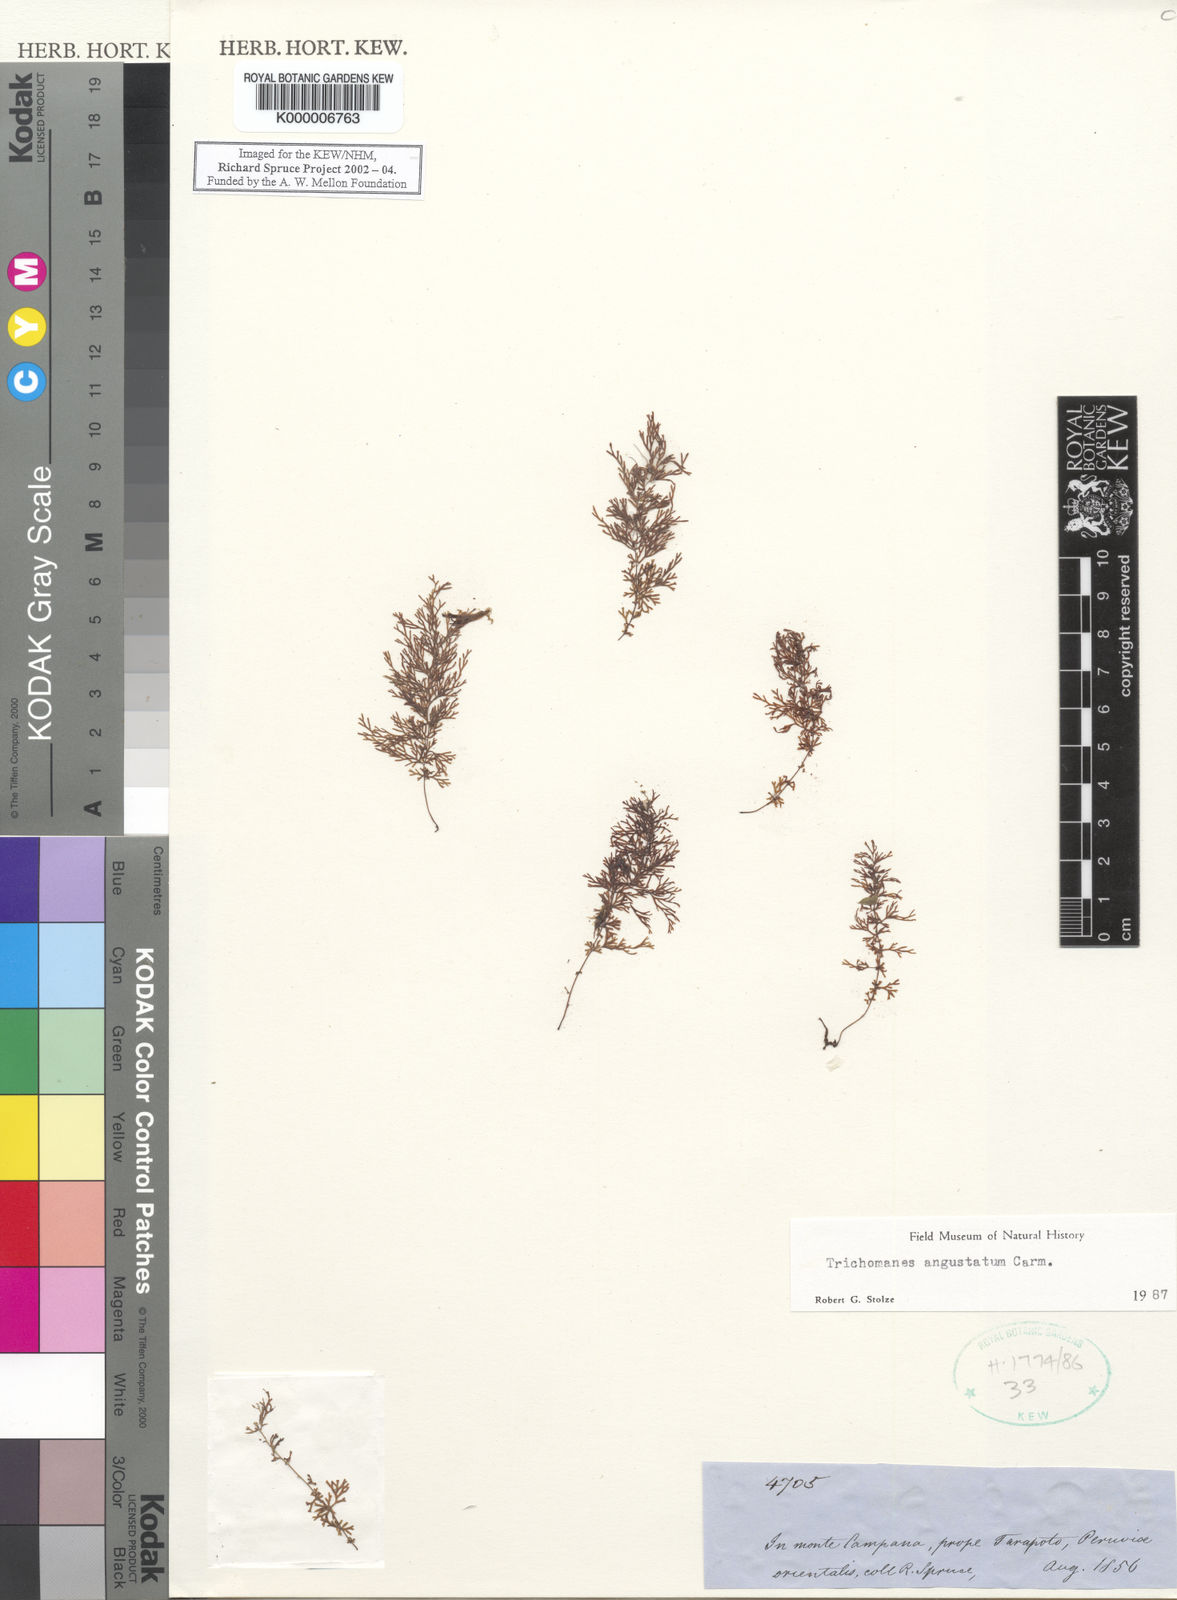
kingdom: Plantae
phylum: Tracheophyta
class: Polypodiopsida
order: Hymenophyllales
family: Hymenophyllaceae
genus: Polyphlebium
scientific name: Polyphlebium angustatum
